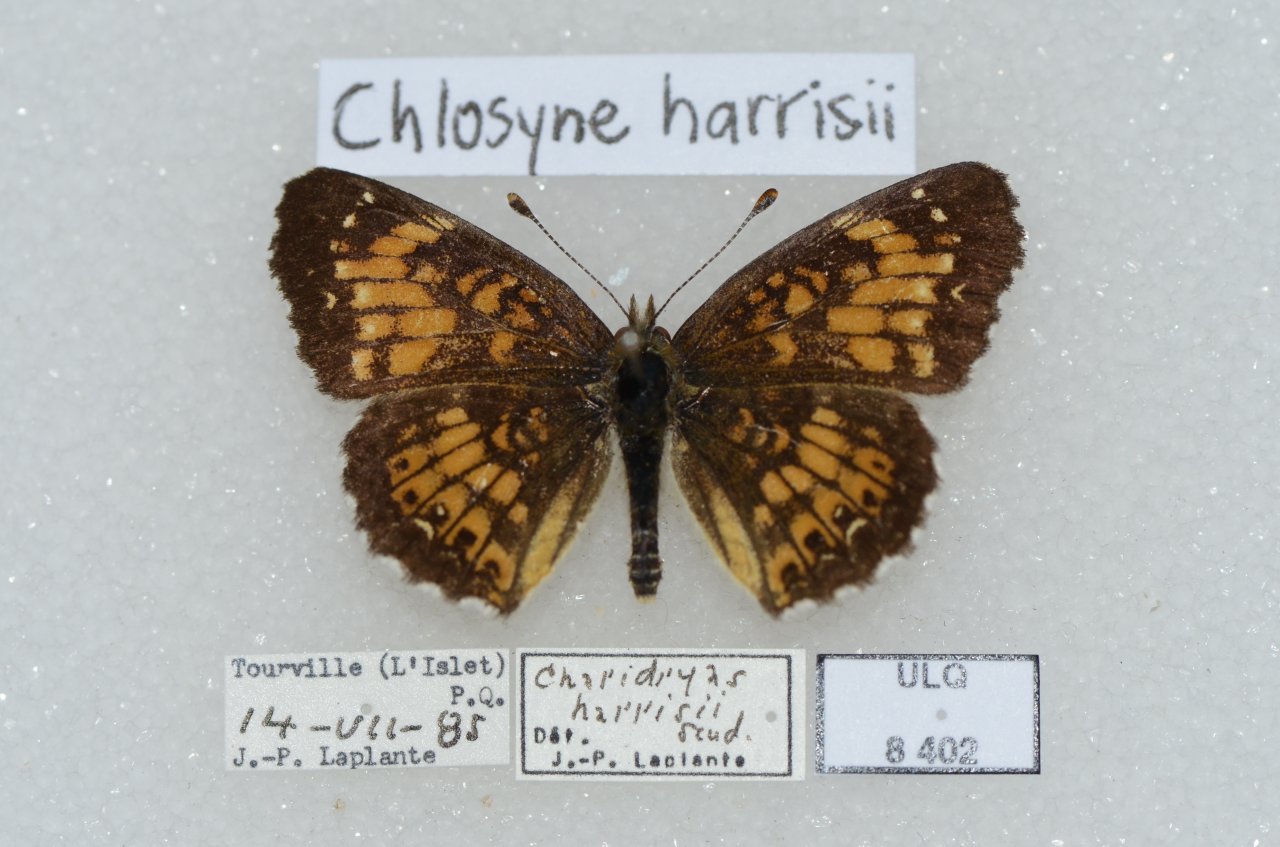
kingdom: Animalia
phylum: Arthropoda
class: Insecta
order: Lepidoptera
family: Nymphalidae
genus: Chlosyne
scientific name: Chlosyne harrisii
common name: Harris's Checkerspot
